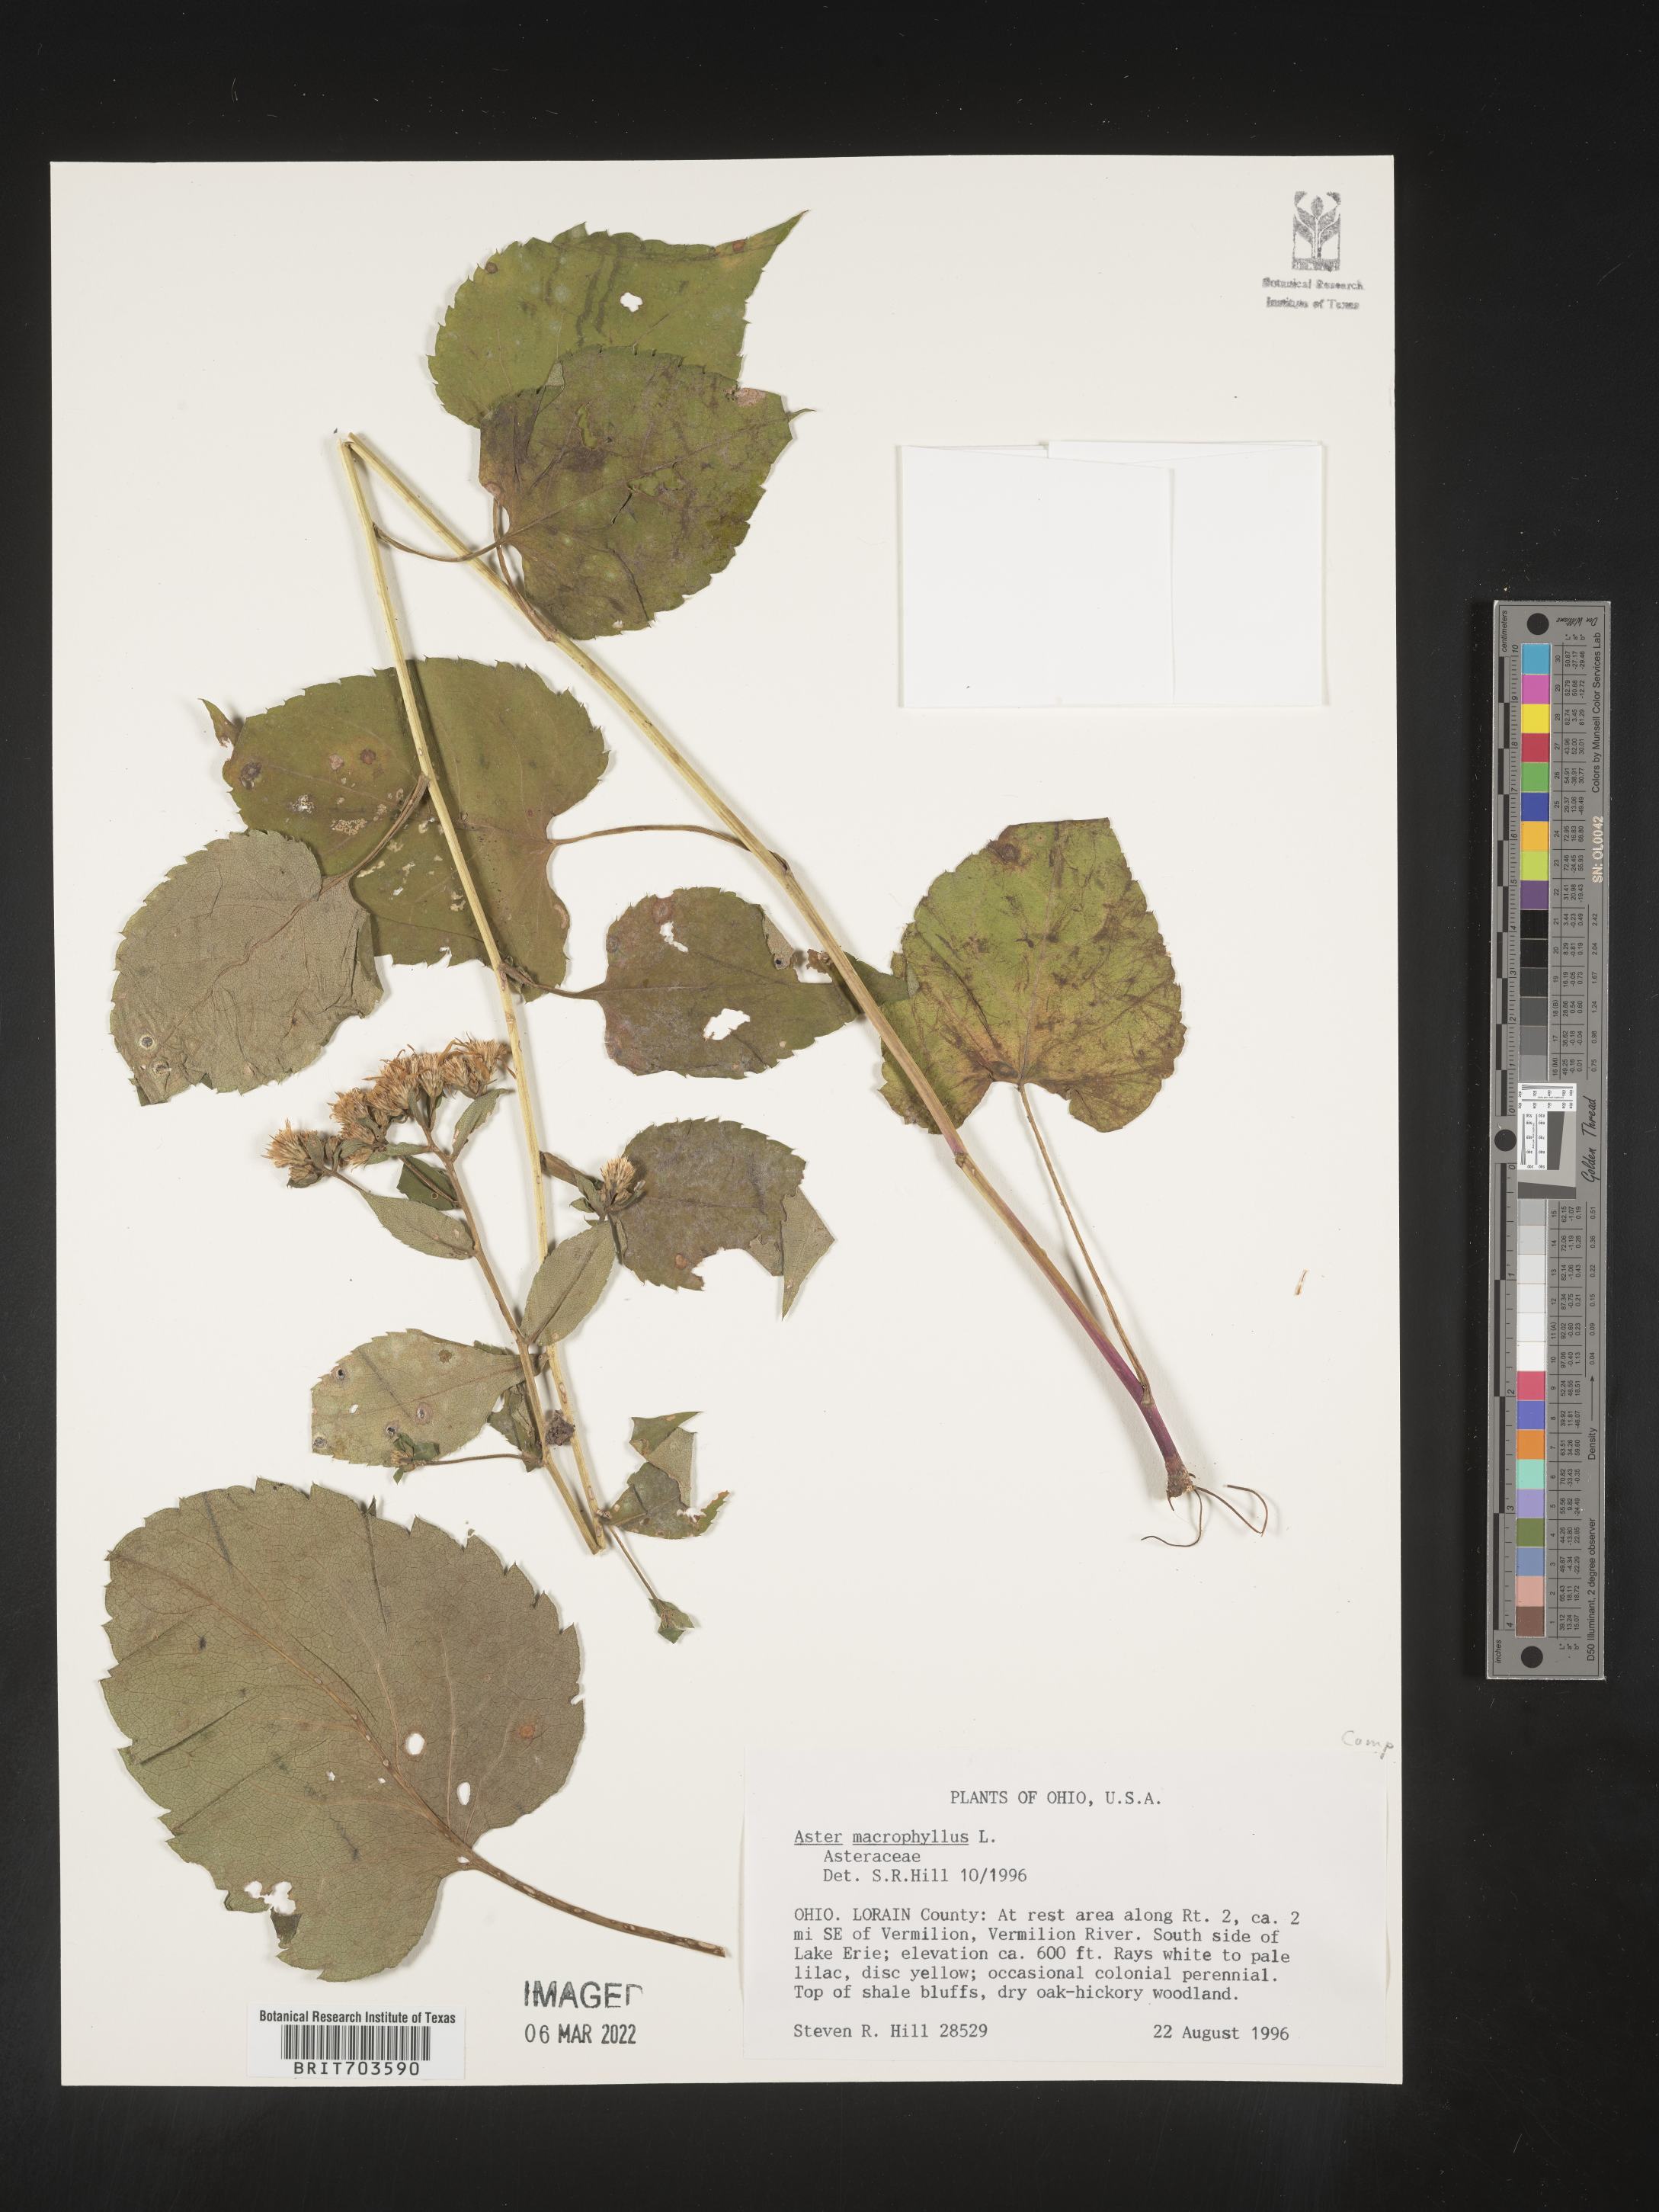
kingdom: Plantae
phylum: Tracheophyta
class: Magnoliopsida
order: Asterales
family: Asteraceae
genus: Eurybia
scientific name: Eurybia macrophylla
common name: Big-leaved aster
